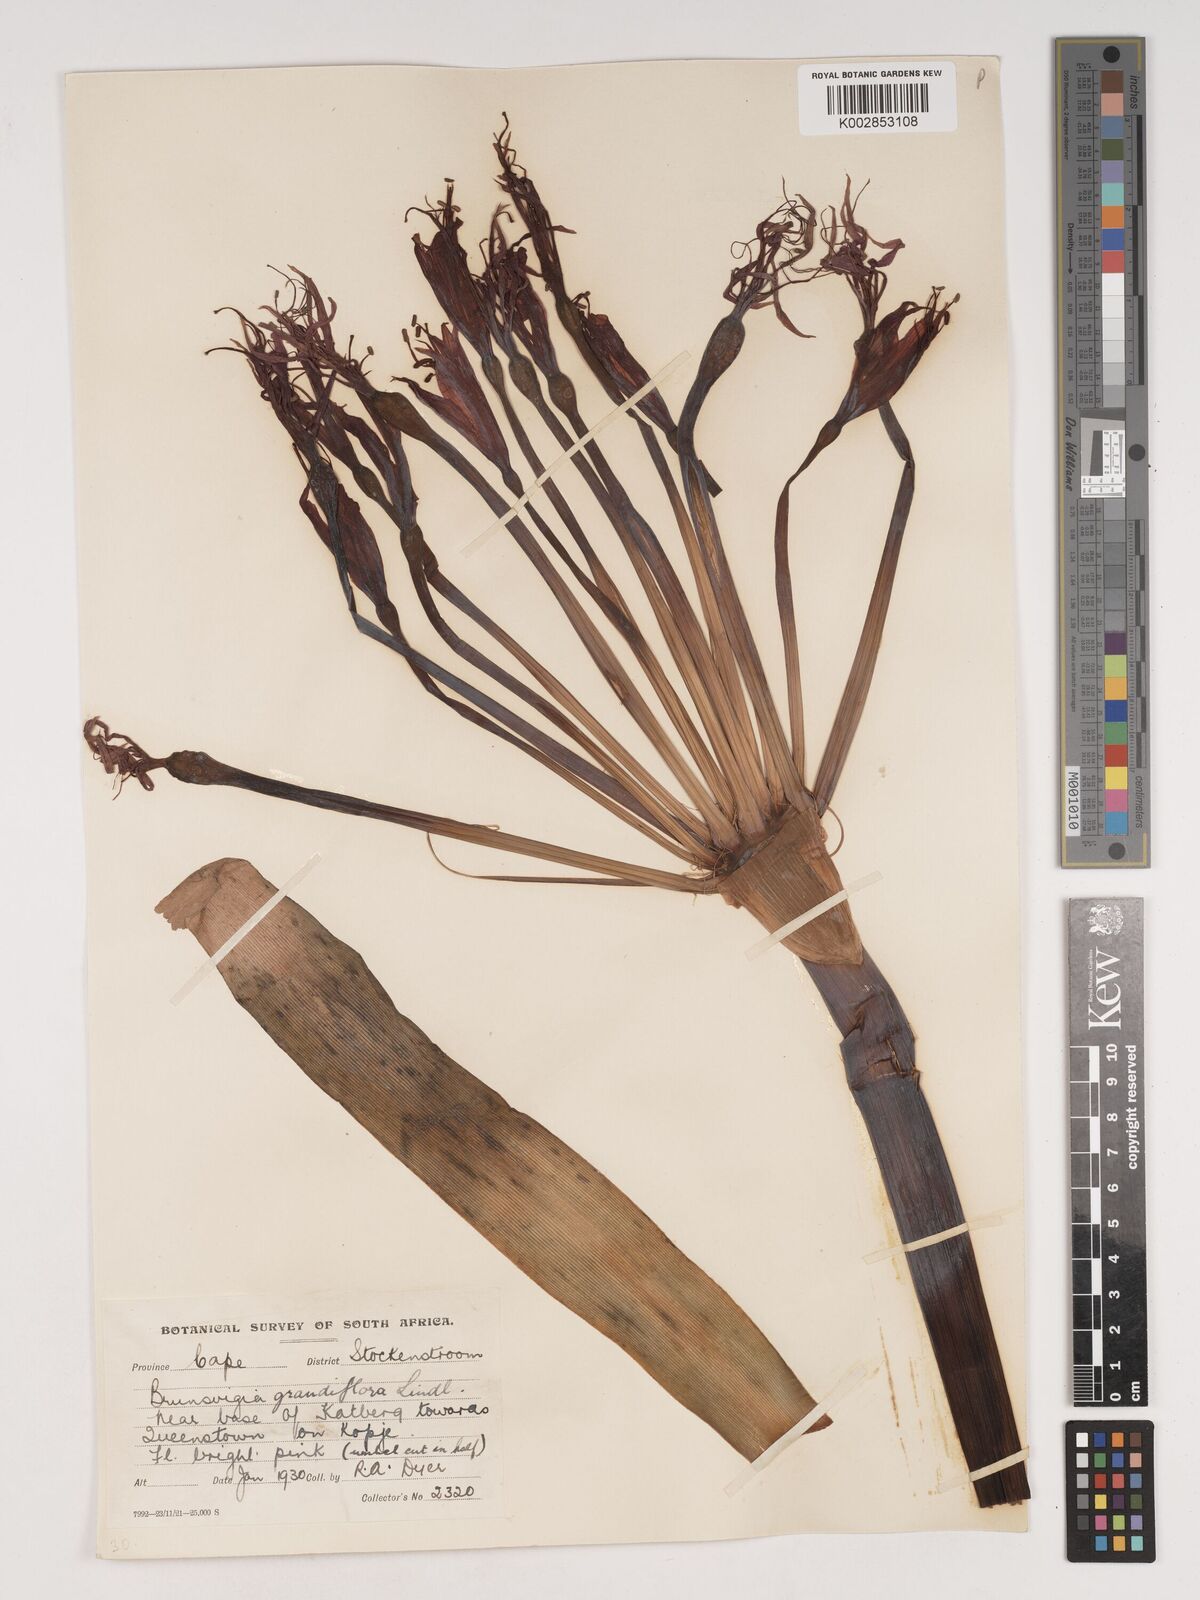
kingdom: Plantae
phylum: Tracheophyta
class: Liliopsida
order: Asparagales
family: Amaryllidaceae
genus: Brunsvigia
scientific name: Brunsvigia grandiflora
